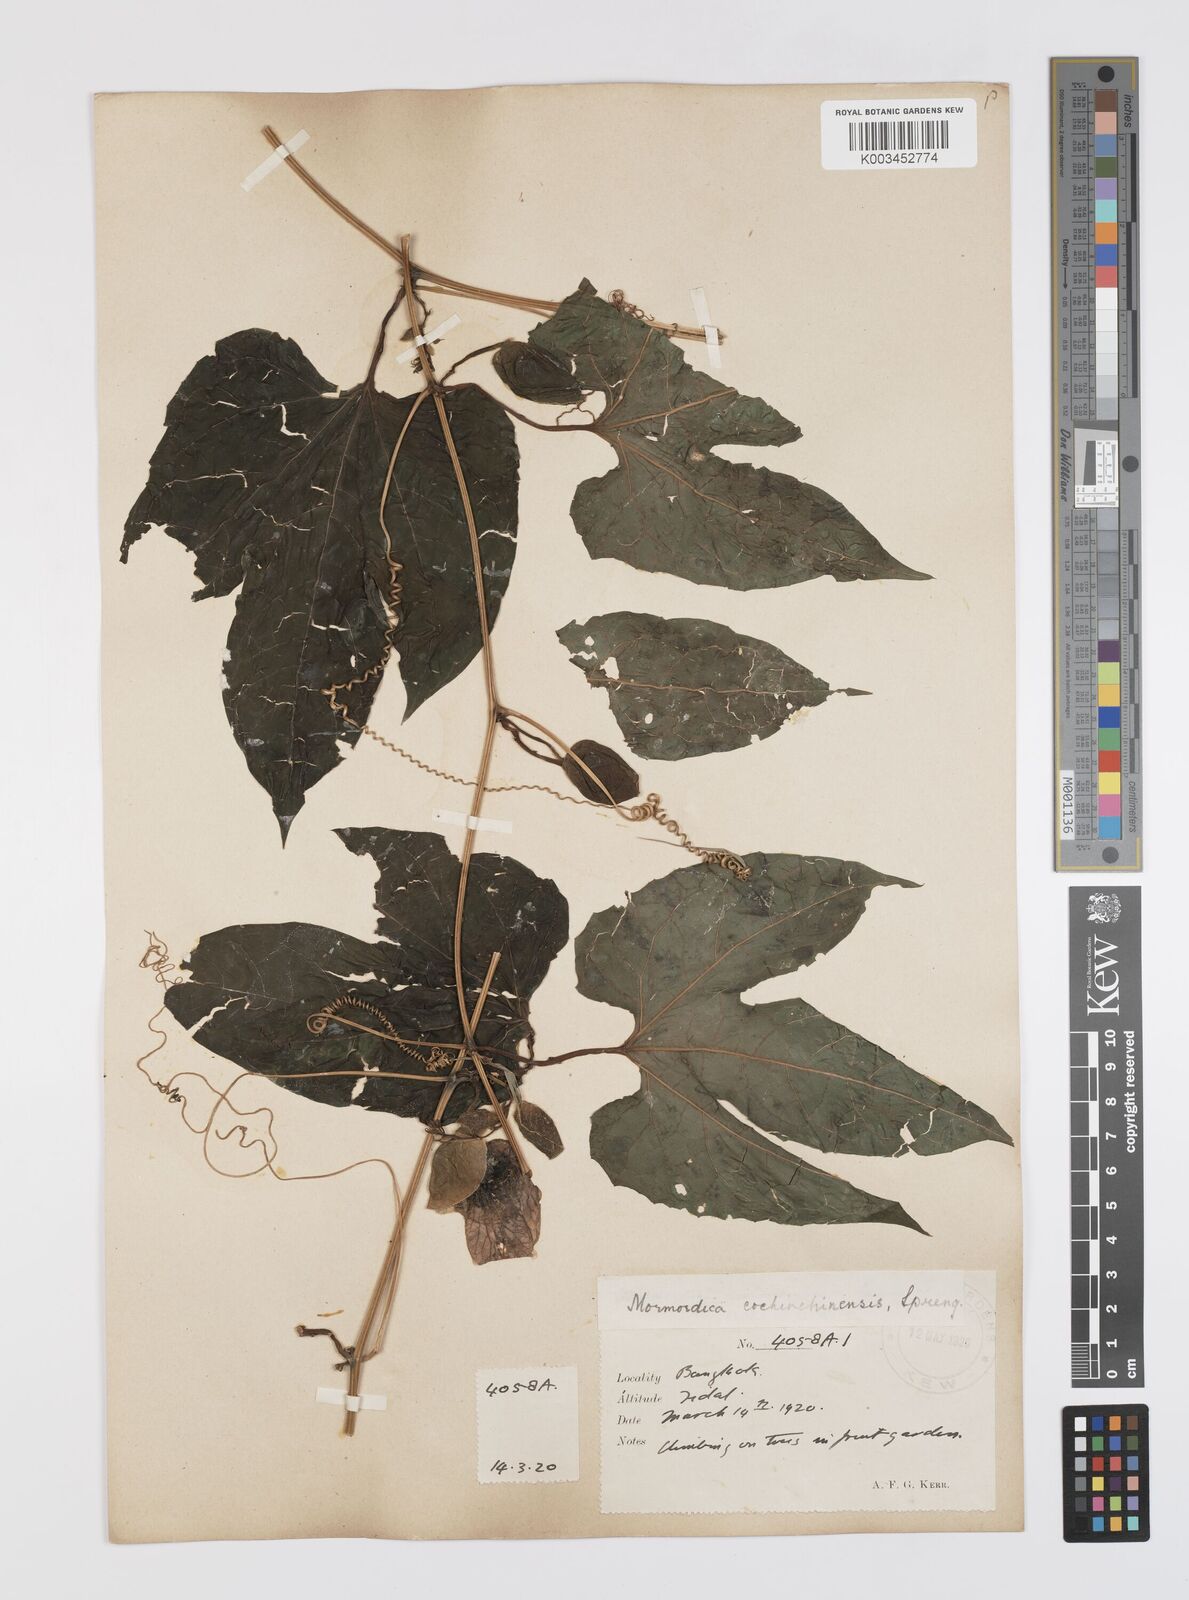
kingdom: Plantae
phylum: Tracheophyta
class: Magnoliopsida
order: Cucurbitales
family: Cucurbitaceae
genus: Momordica
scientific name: Momordica cochinchinensis
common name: Chinese bitter-cucumber
